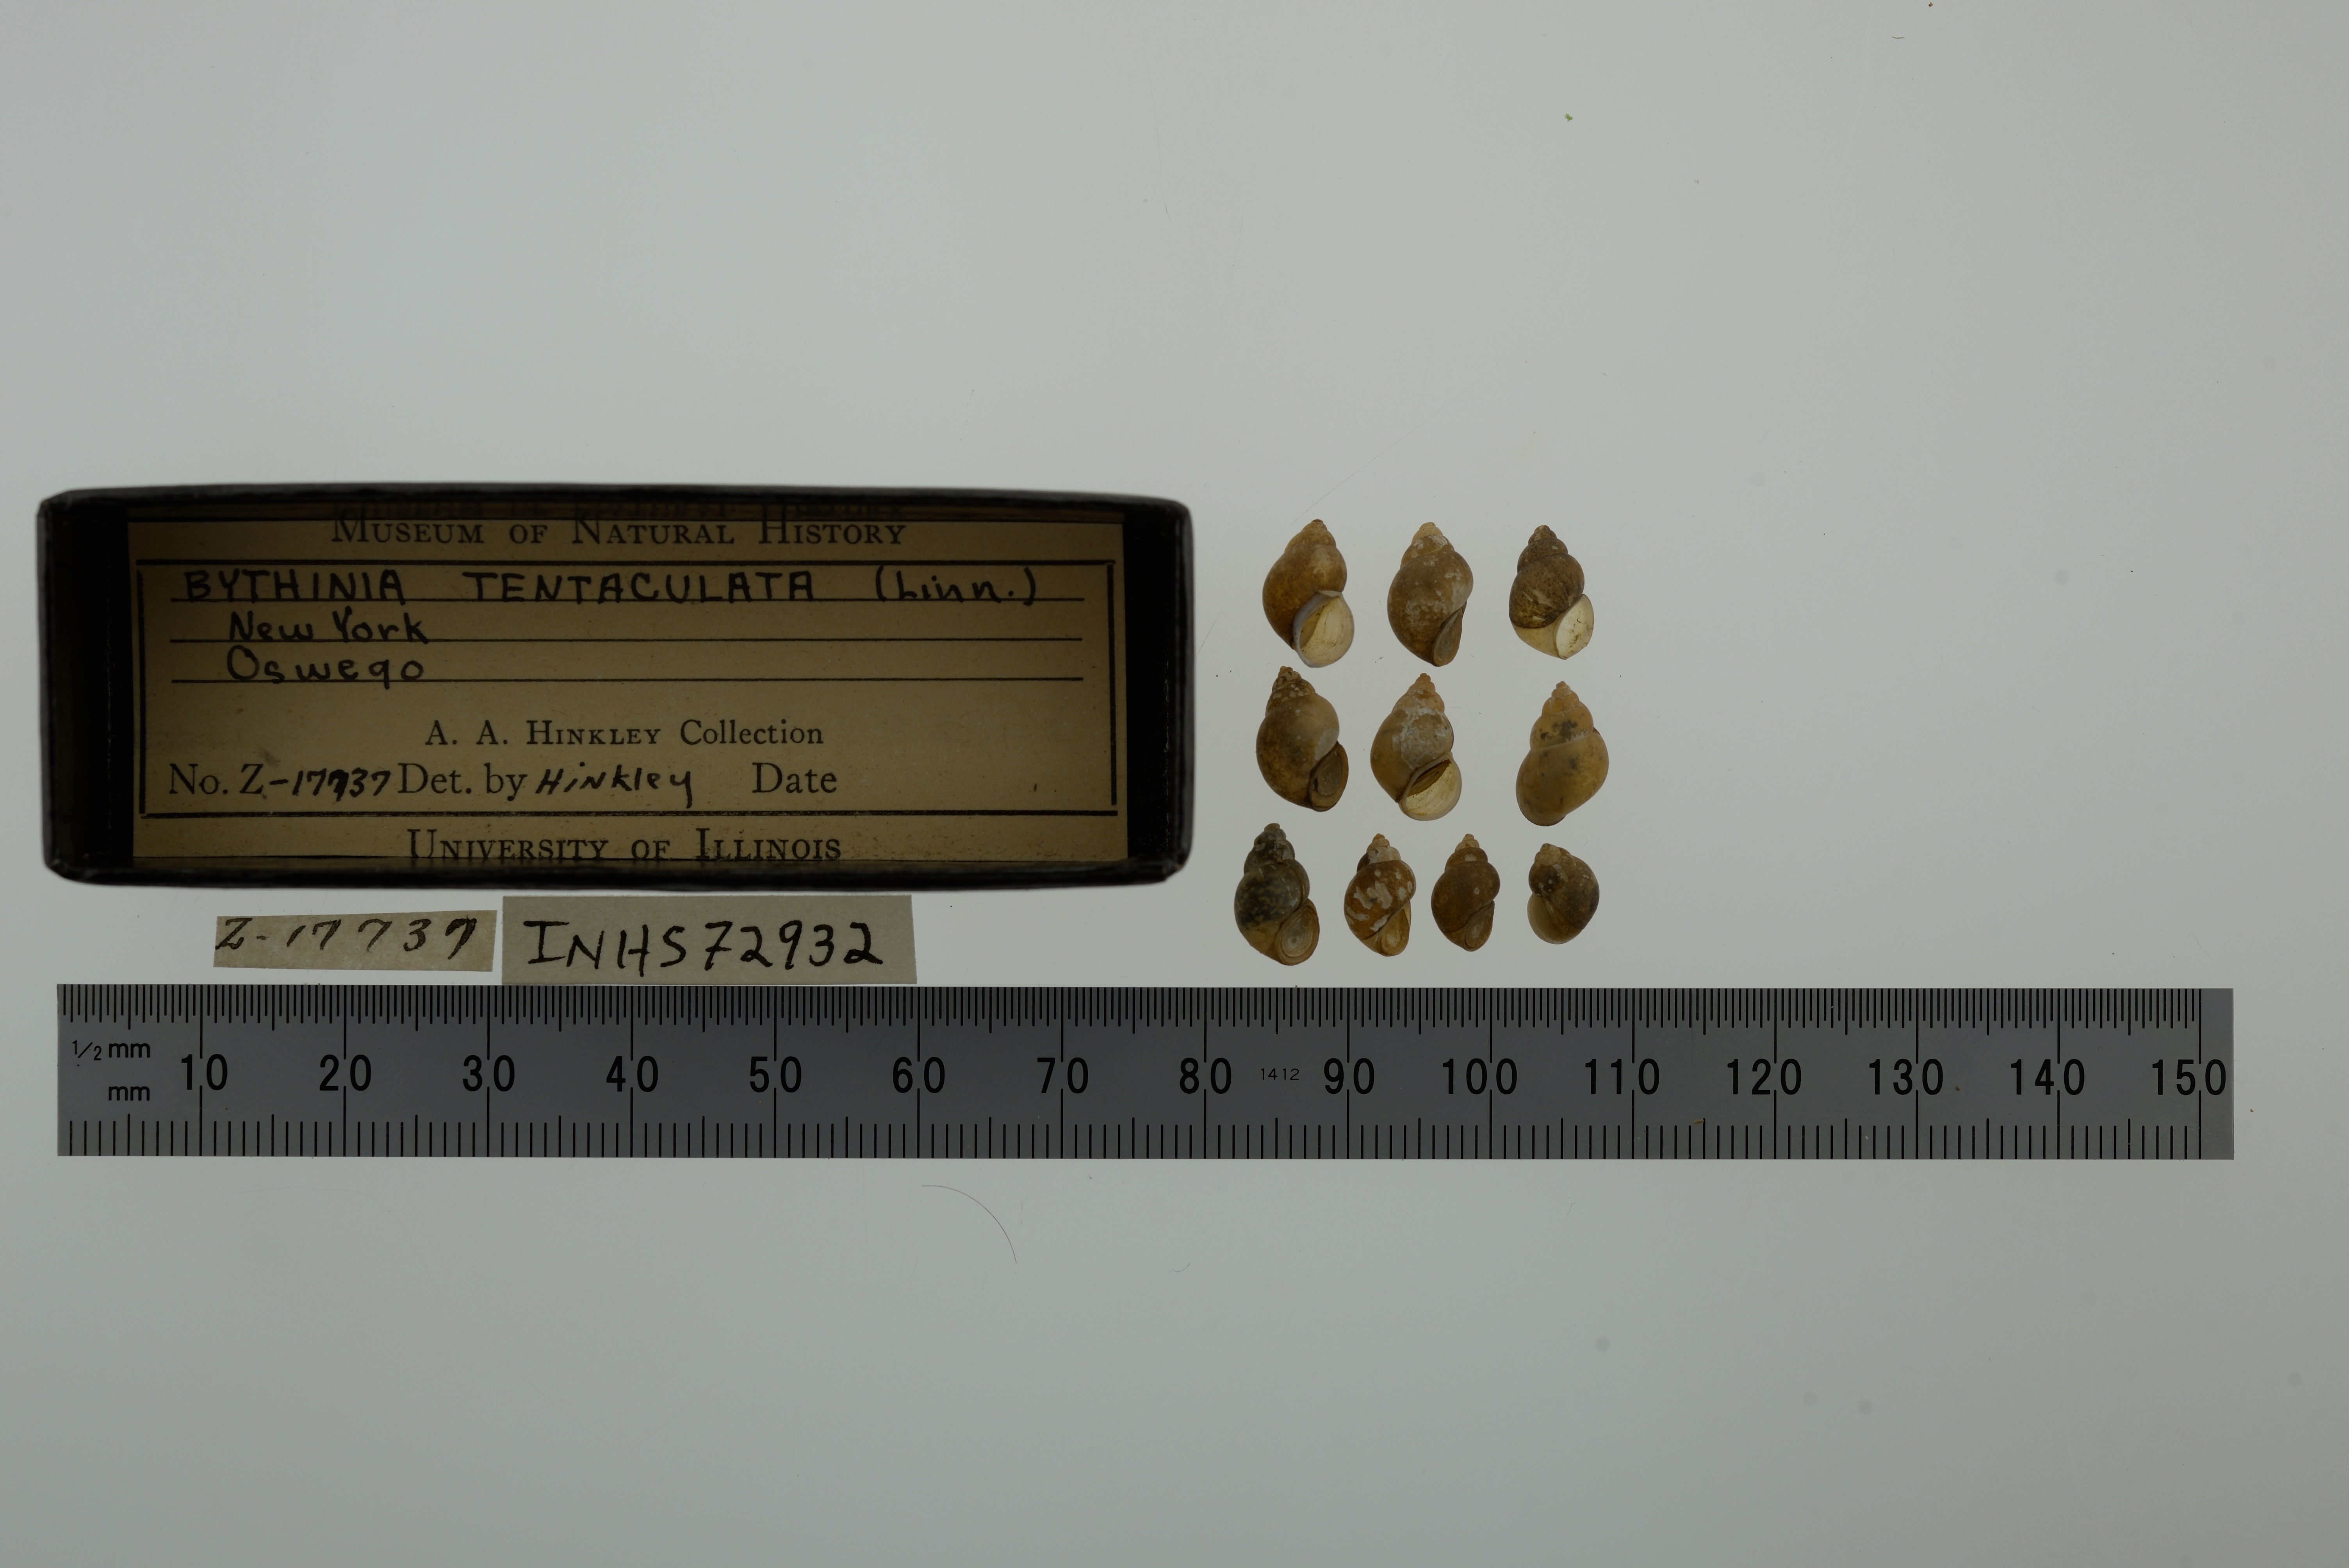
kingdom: Animalia
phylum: Mollusca
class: Gastropoda
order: Littorinimorpha
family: Bithyniidae
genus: Bithynia
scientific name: Bithynia tentaculata
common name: Common bithynia
